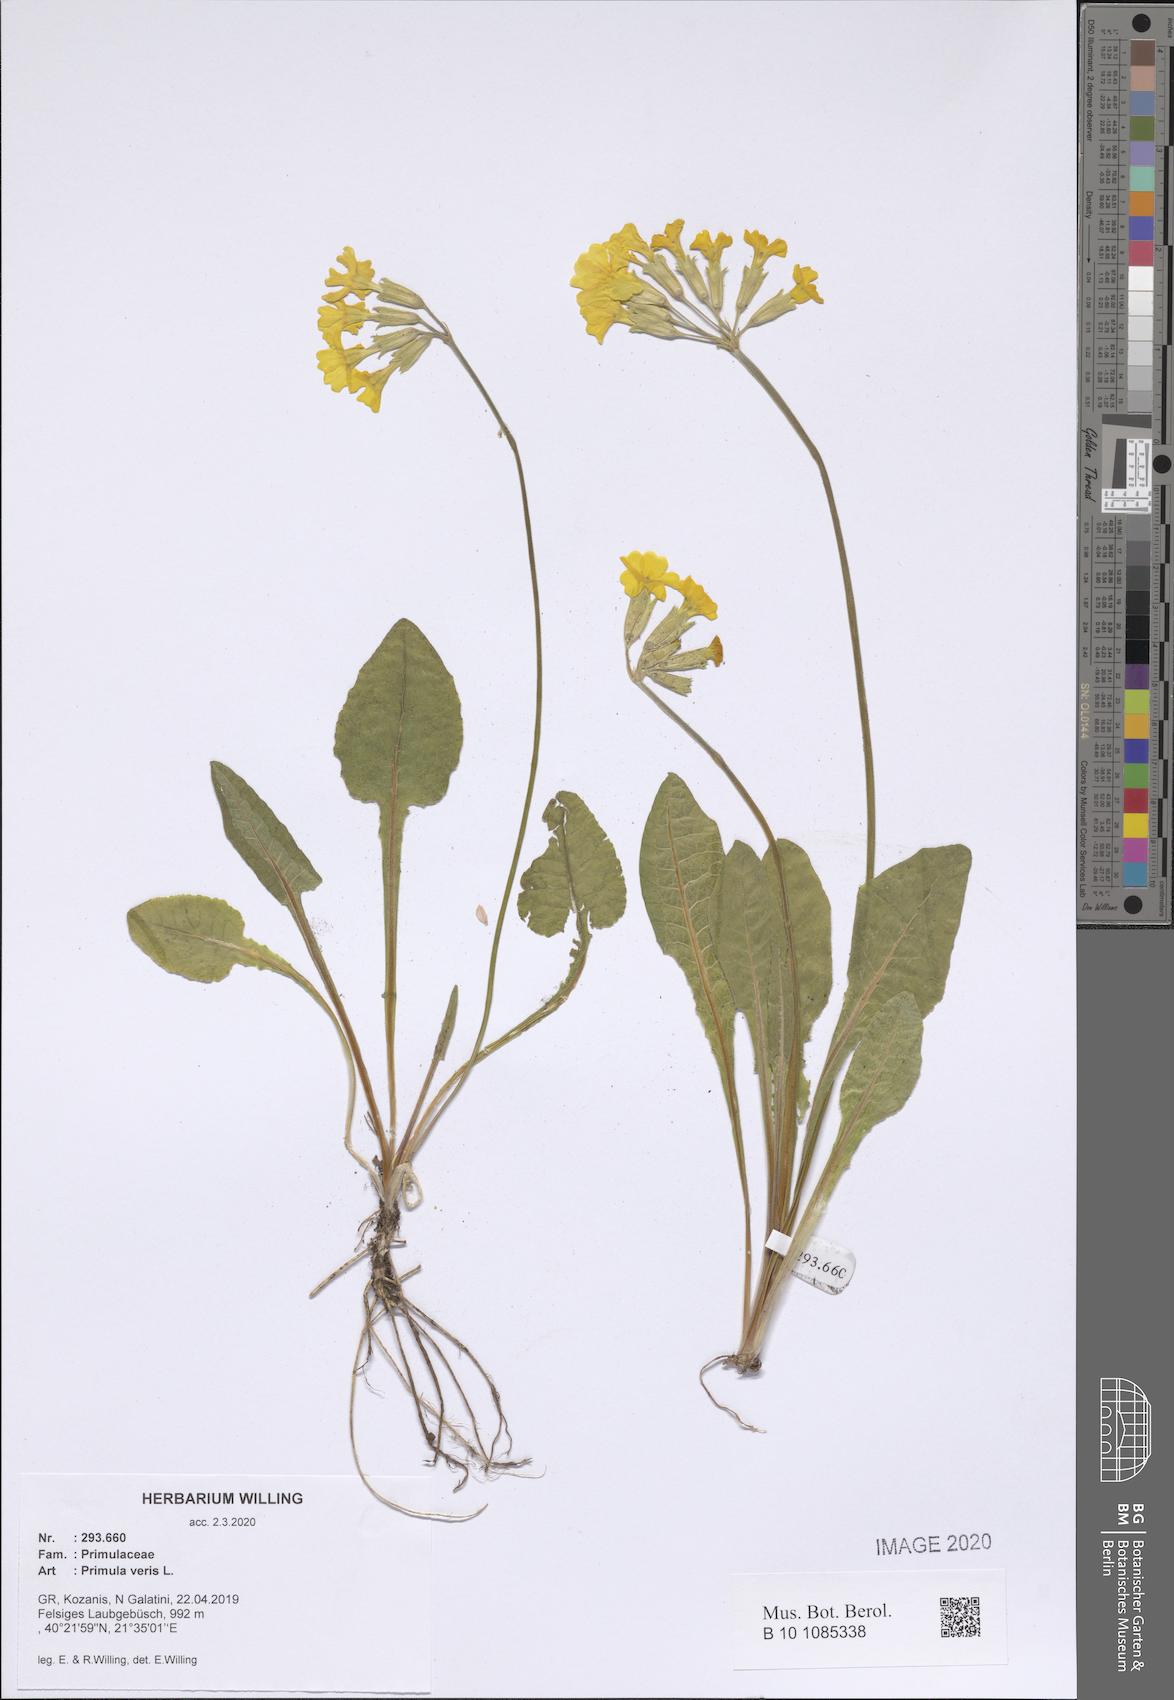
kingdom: Plantae
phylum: Tracheophyta
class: Magnoliopsida
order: Ericales
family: Primulaceae
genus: Primula
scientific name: Primula veris
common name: Cowslip
